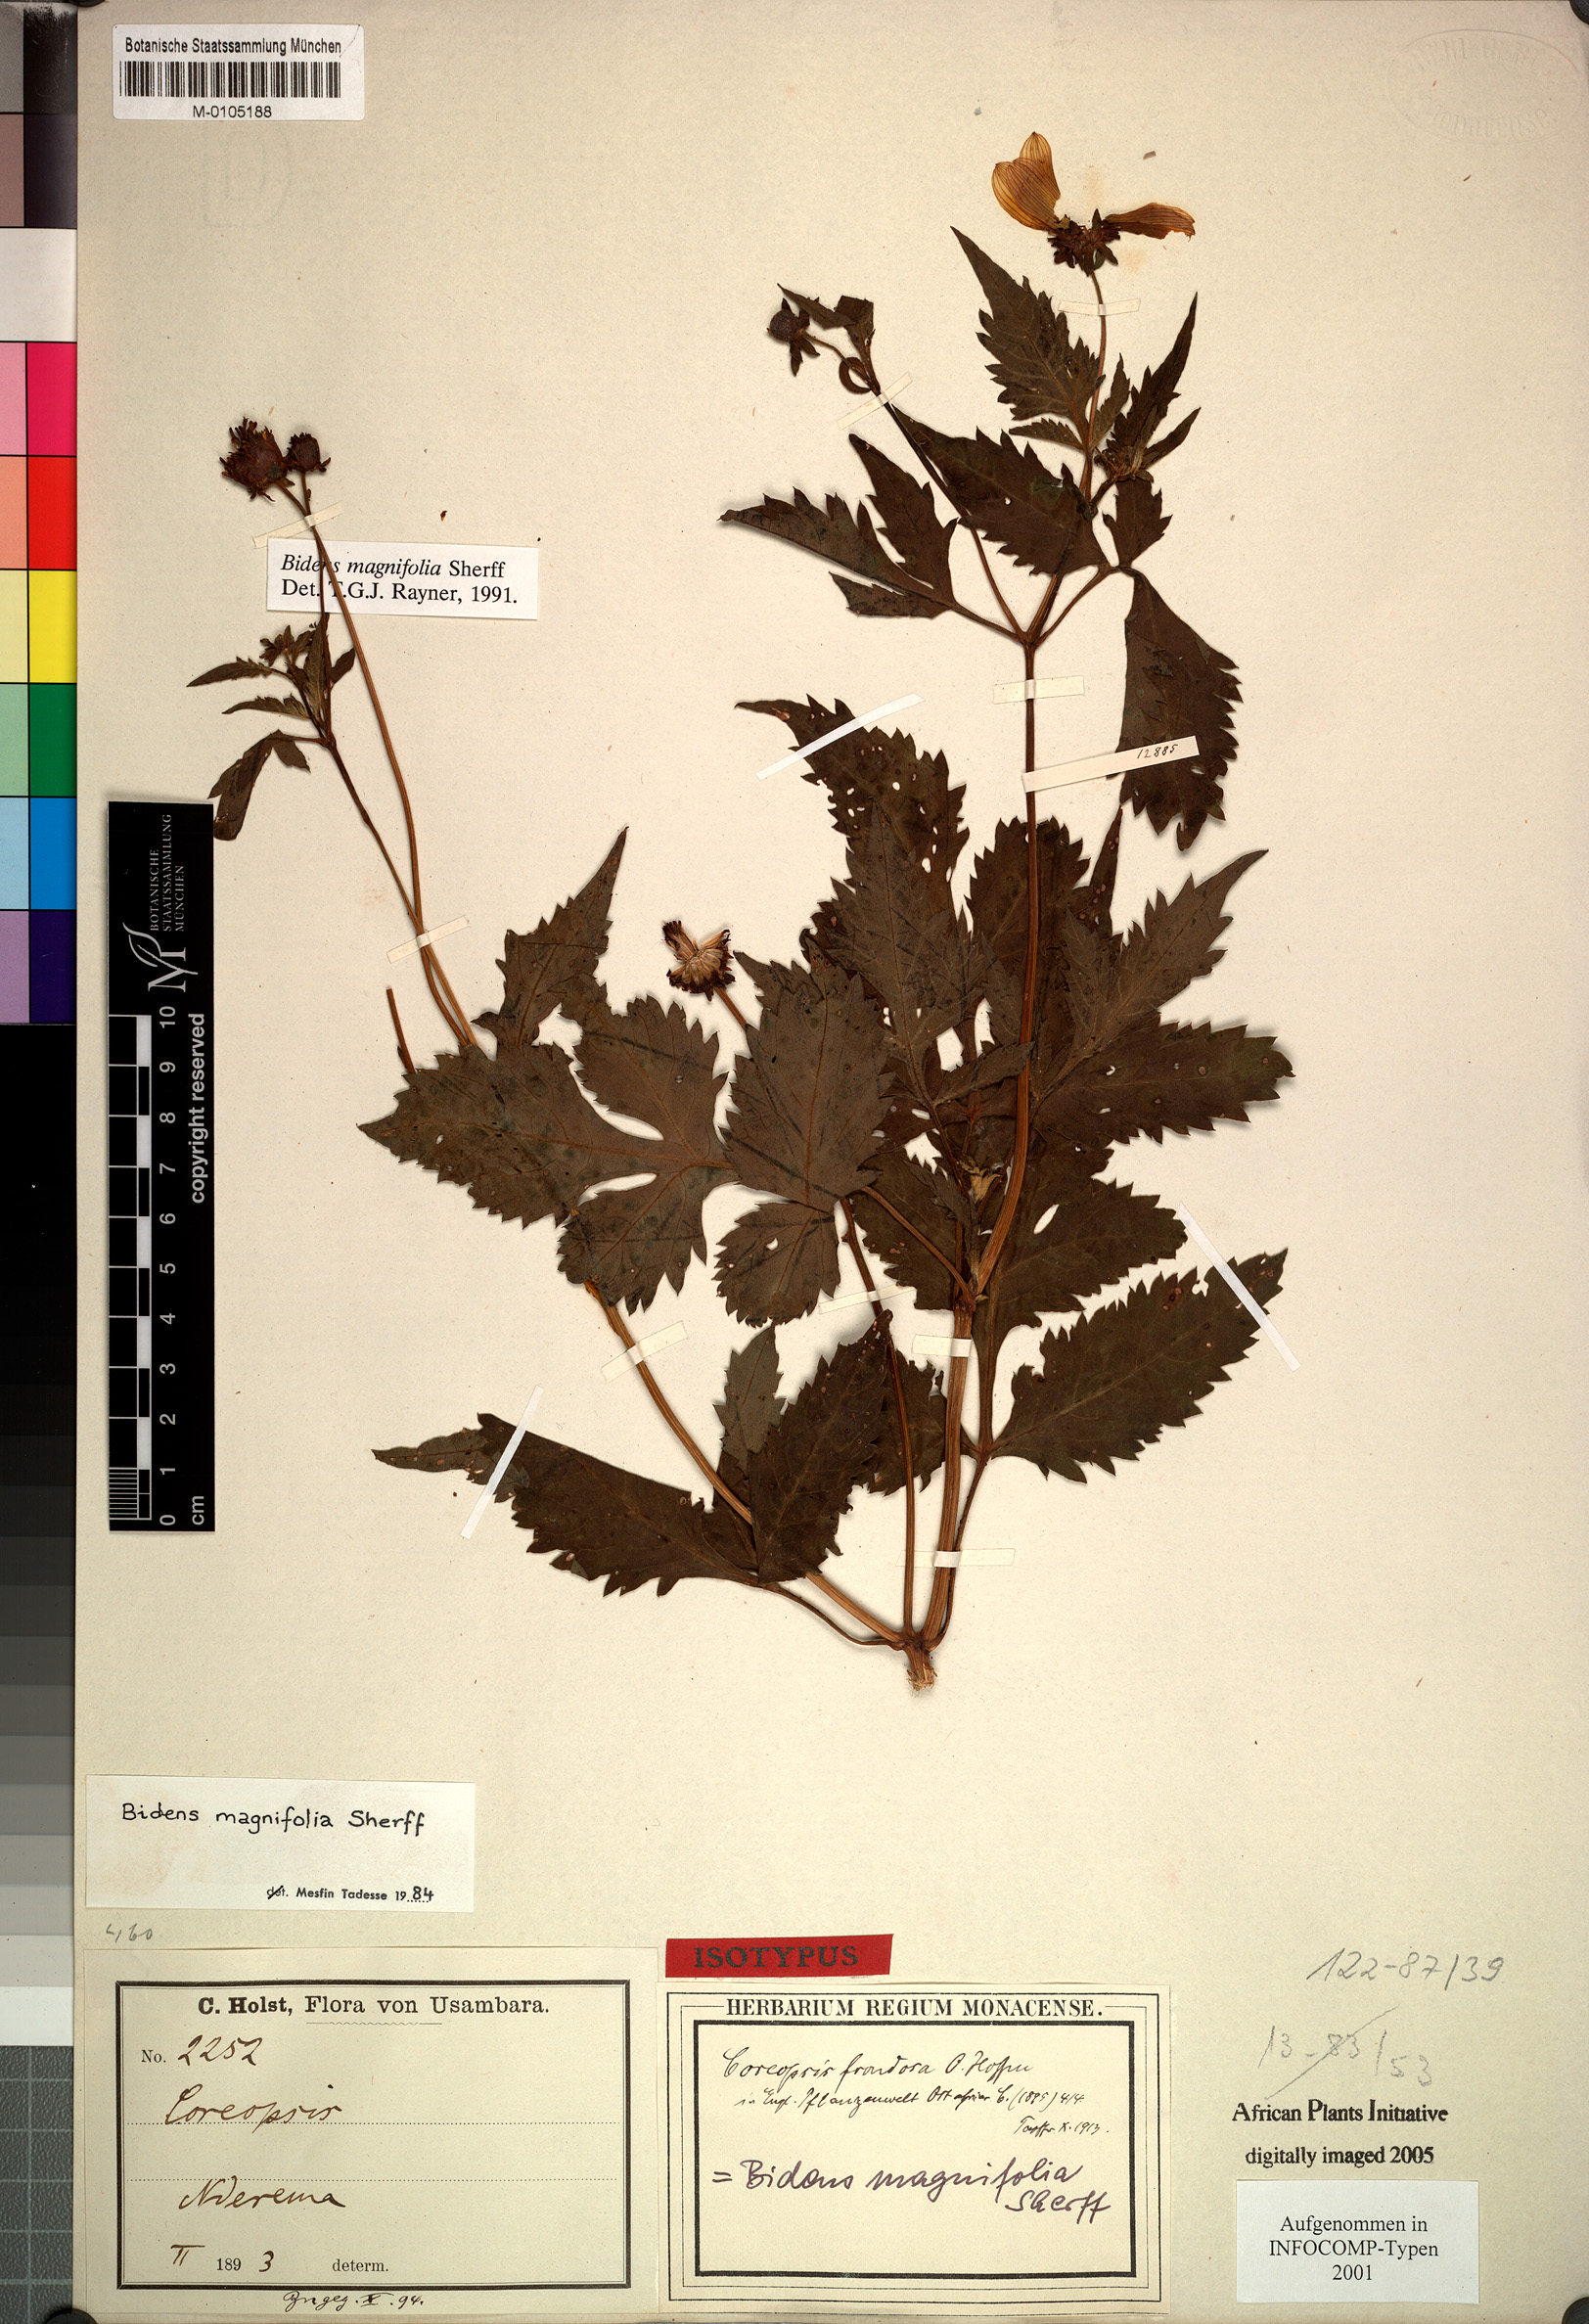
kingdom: Plantae
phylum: Tracheophyta
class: Magnoliopsida
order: Asterales
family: Asteraceae
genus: Bidens
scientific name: Bidens magnifolia
